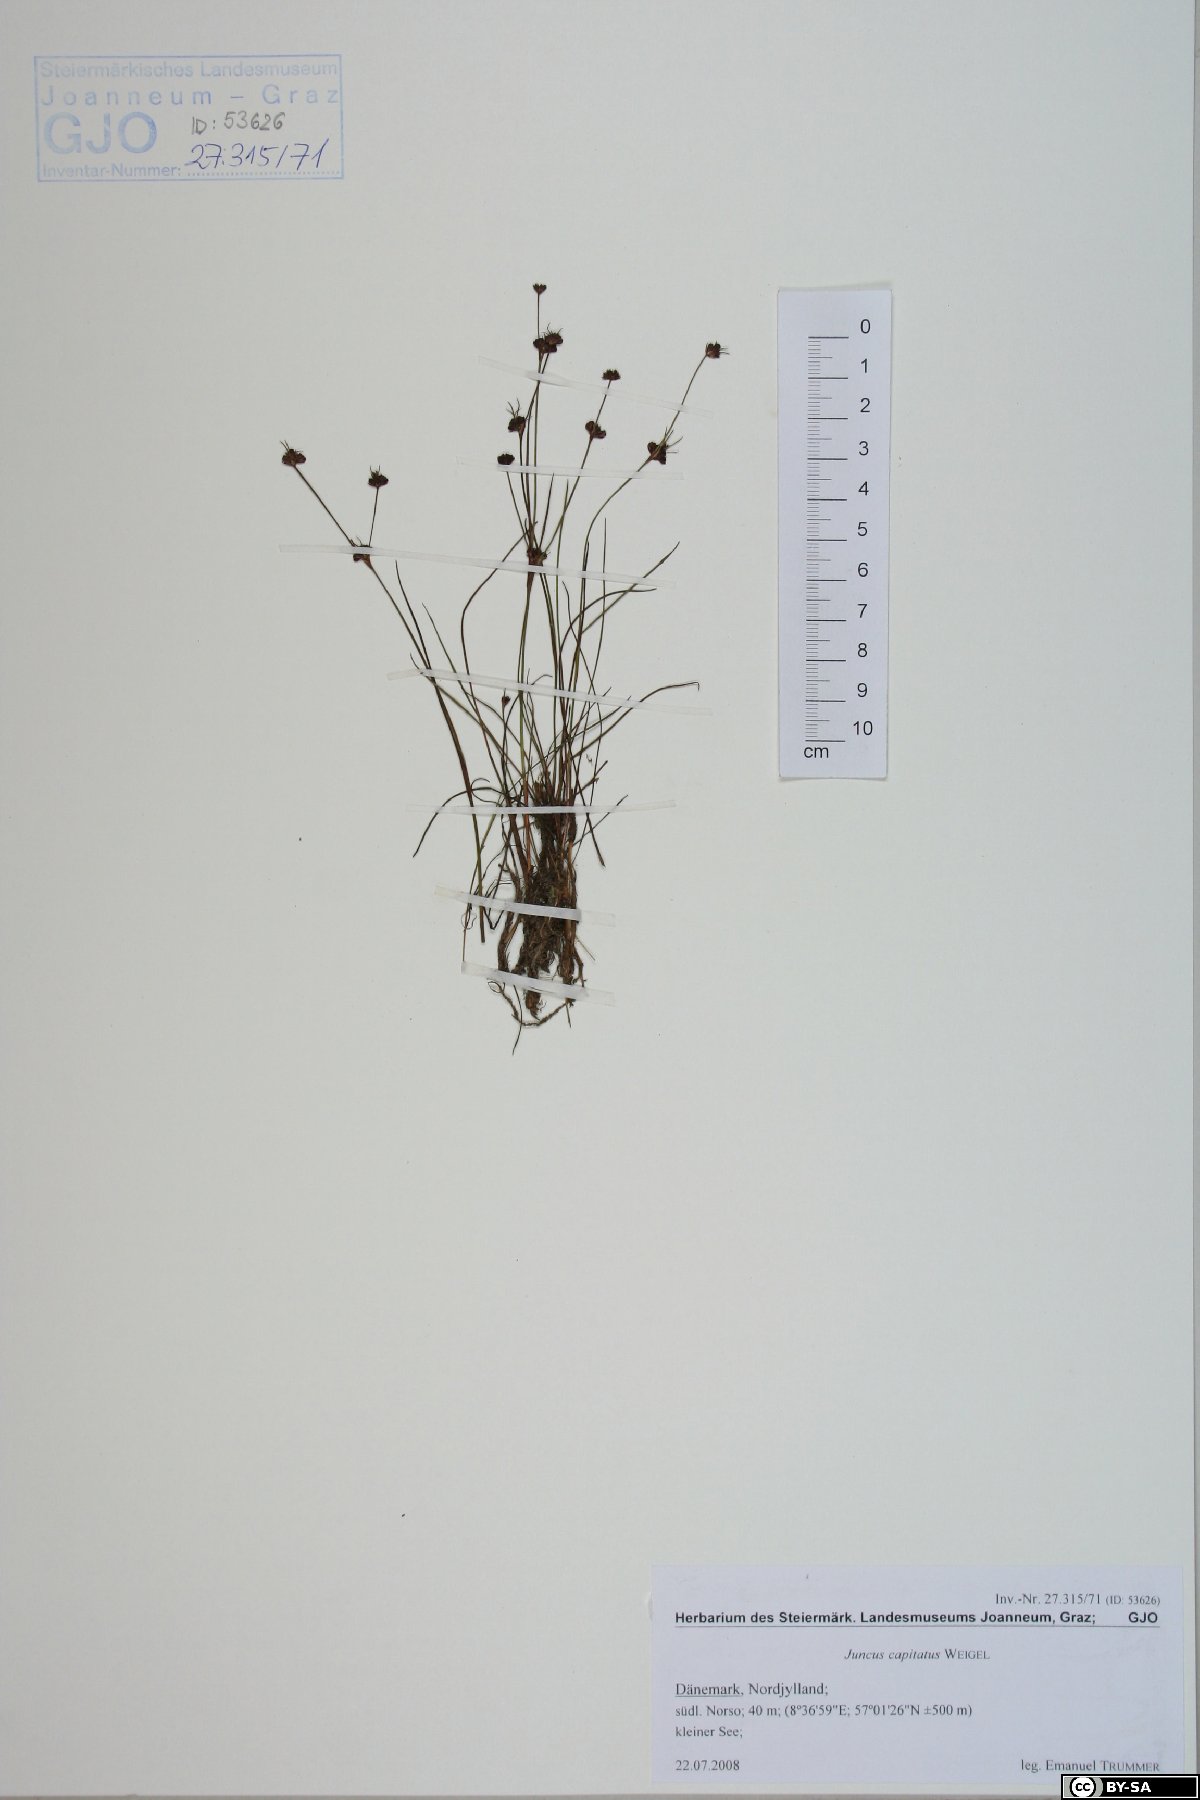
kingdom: Plantae
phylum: Tracheophyta
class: Liliopsida
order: Poales
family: Juncaceae
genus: Juncus
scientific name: Juncus capitatus
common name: Dwarf rush
